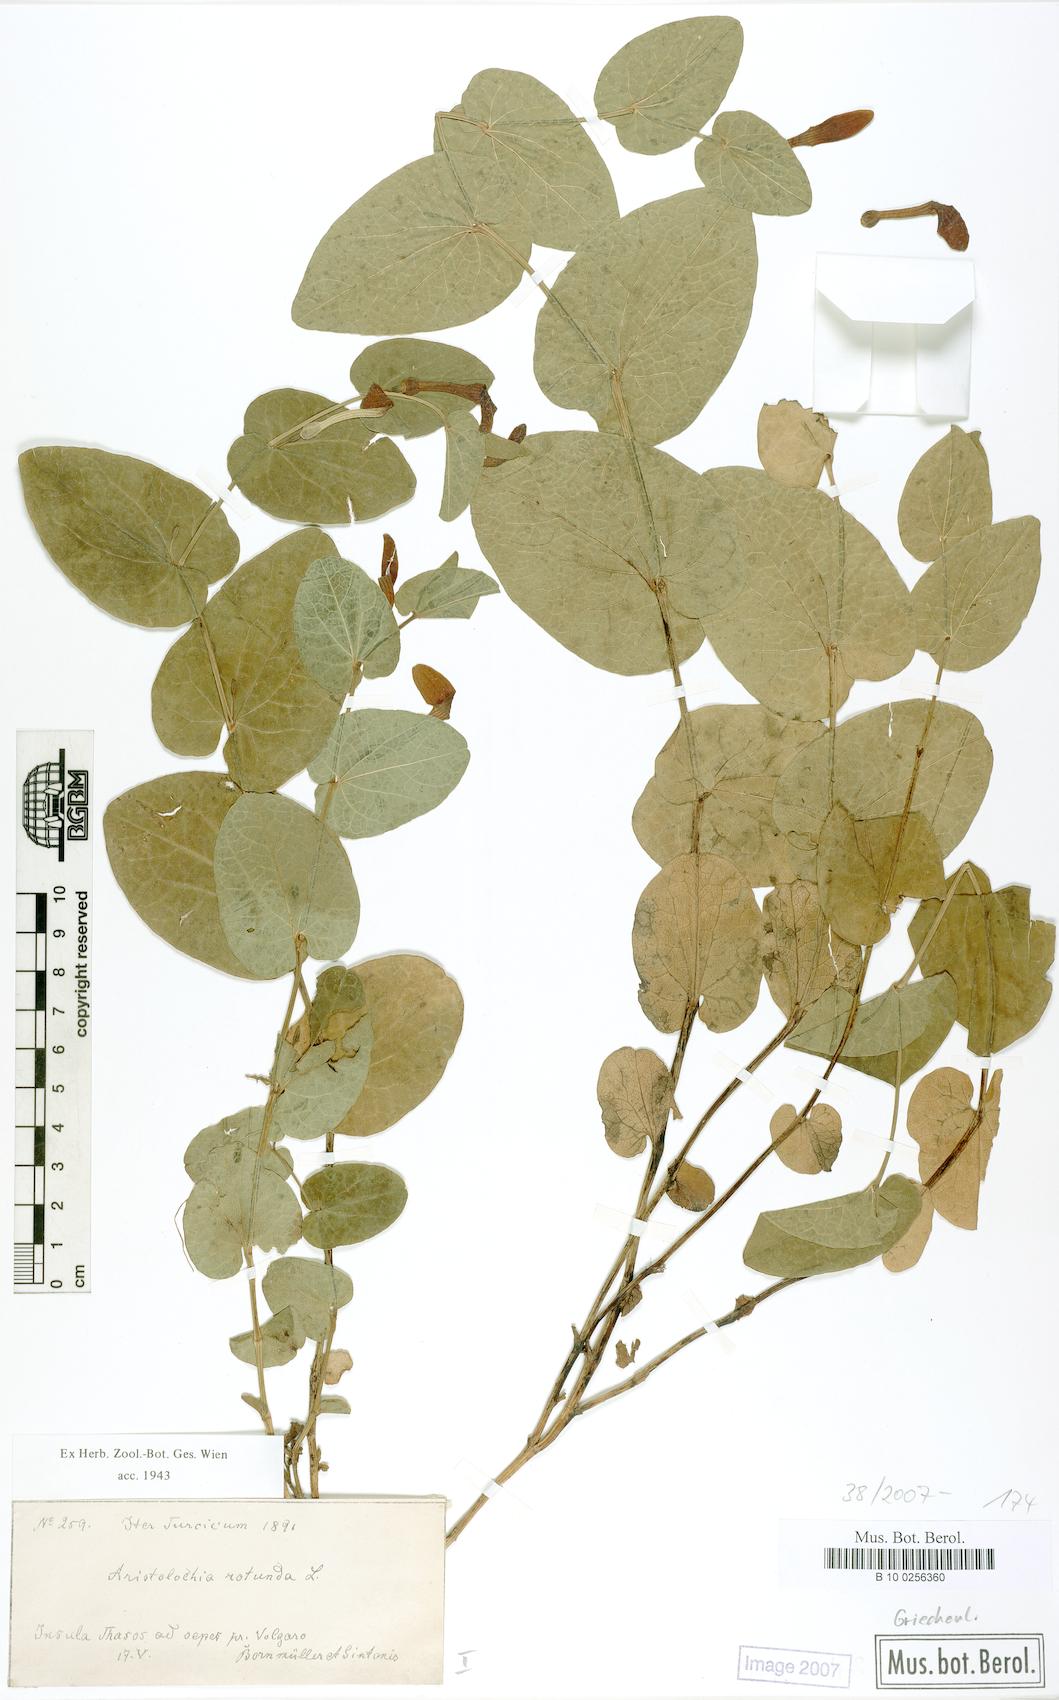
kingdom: Plantae
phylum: Tracheophyta
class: Magnoliopsida
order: Piperales
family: Aristolochiaceae
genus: Aristolochia
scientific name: Aristolochia rotunda
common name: Smearwort
